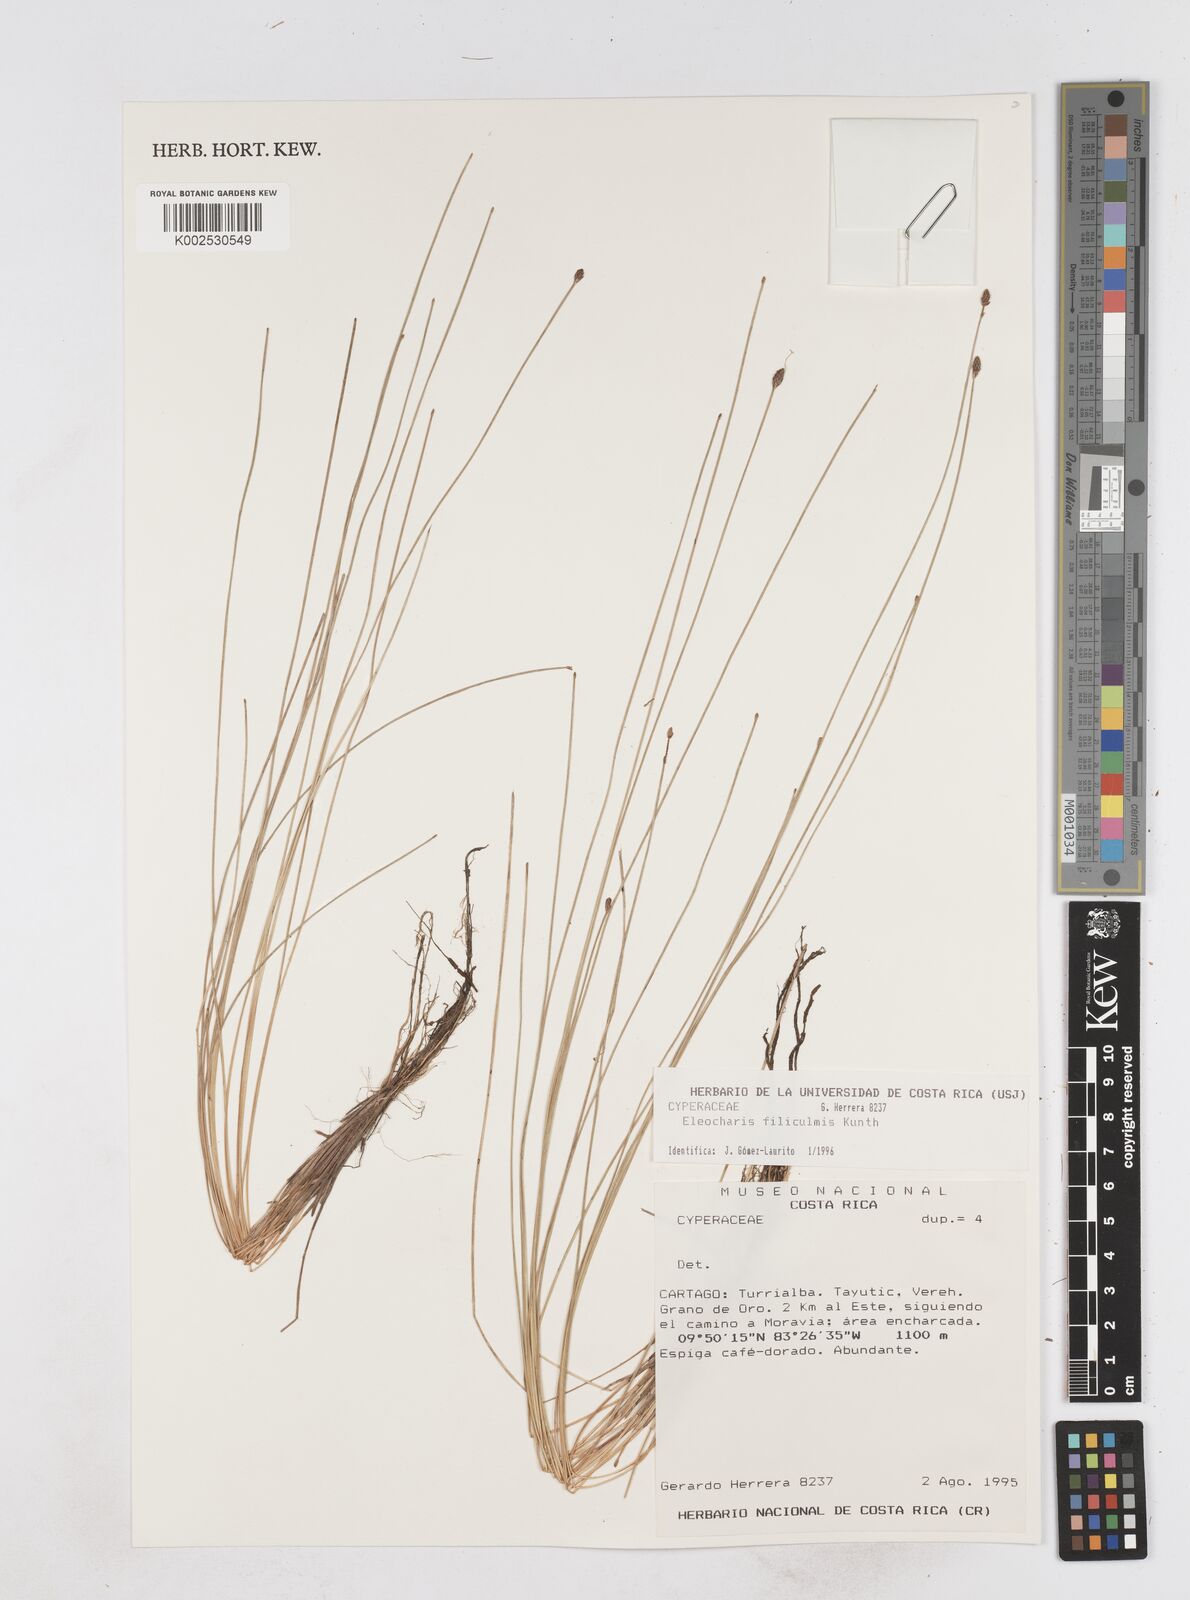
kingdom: Plantae
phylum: Tracheophyta
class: Liliopsida
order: Poales
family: Cyperaceae
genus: Eleocharis
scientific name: Eleocharis filiculmis
